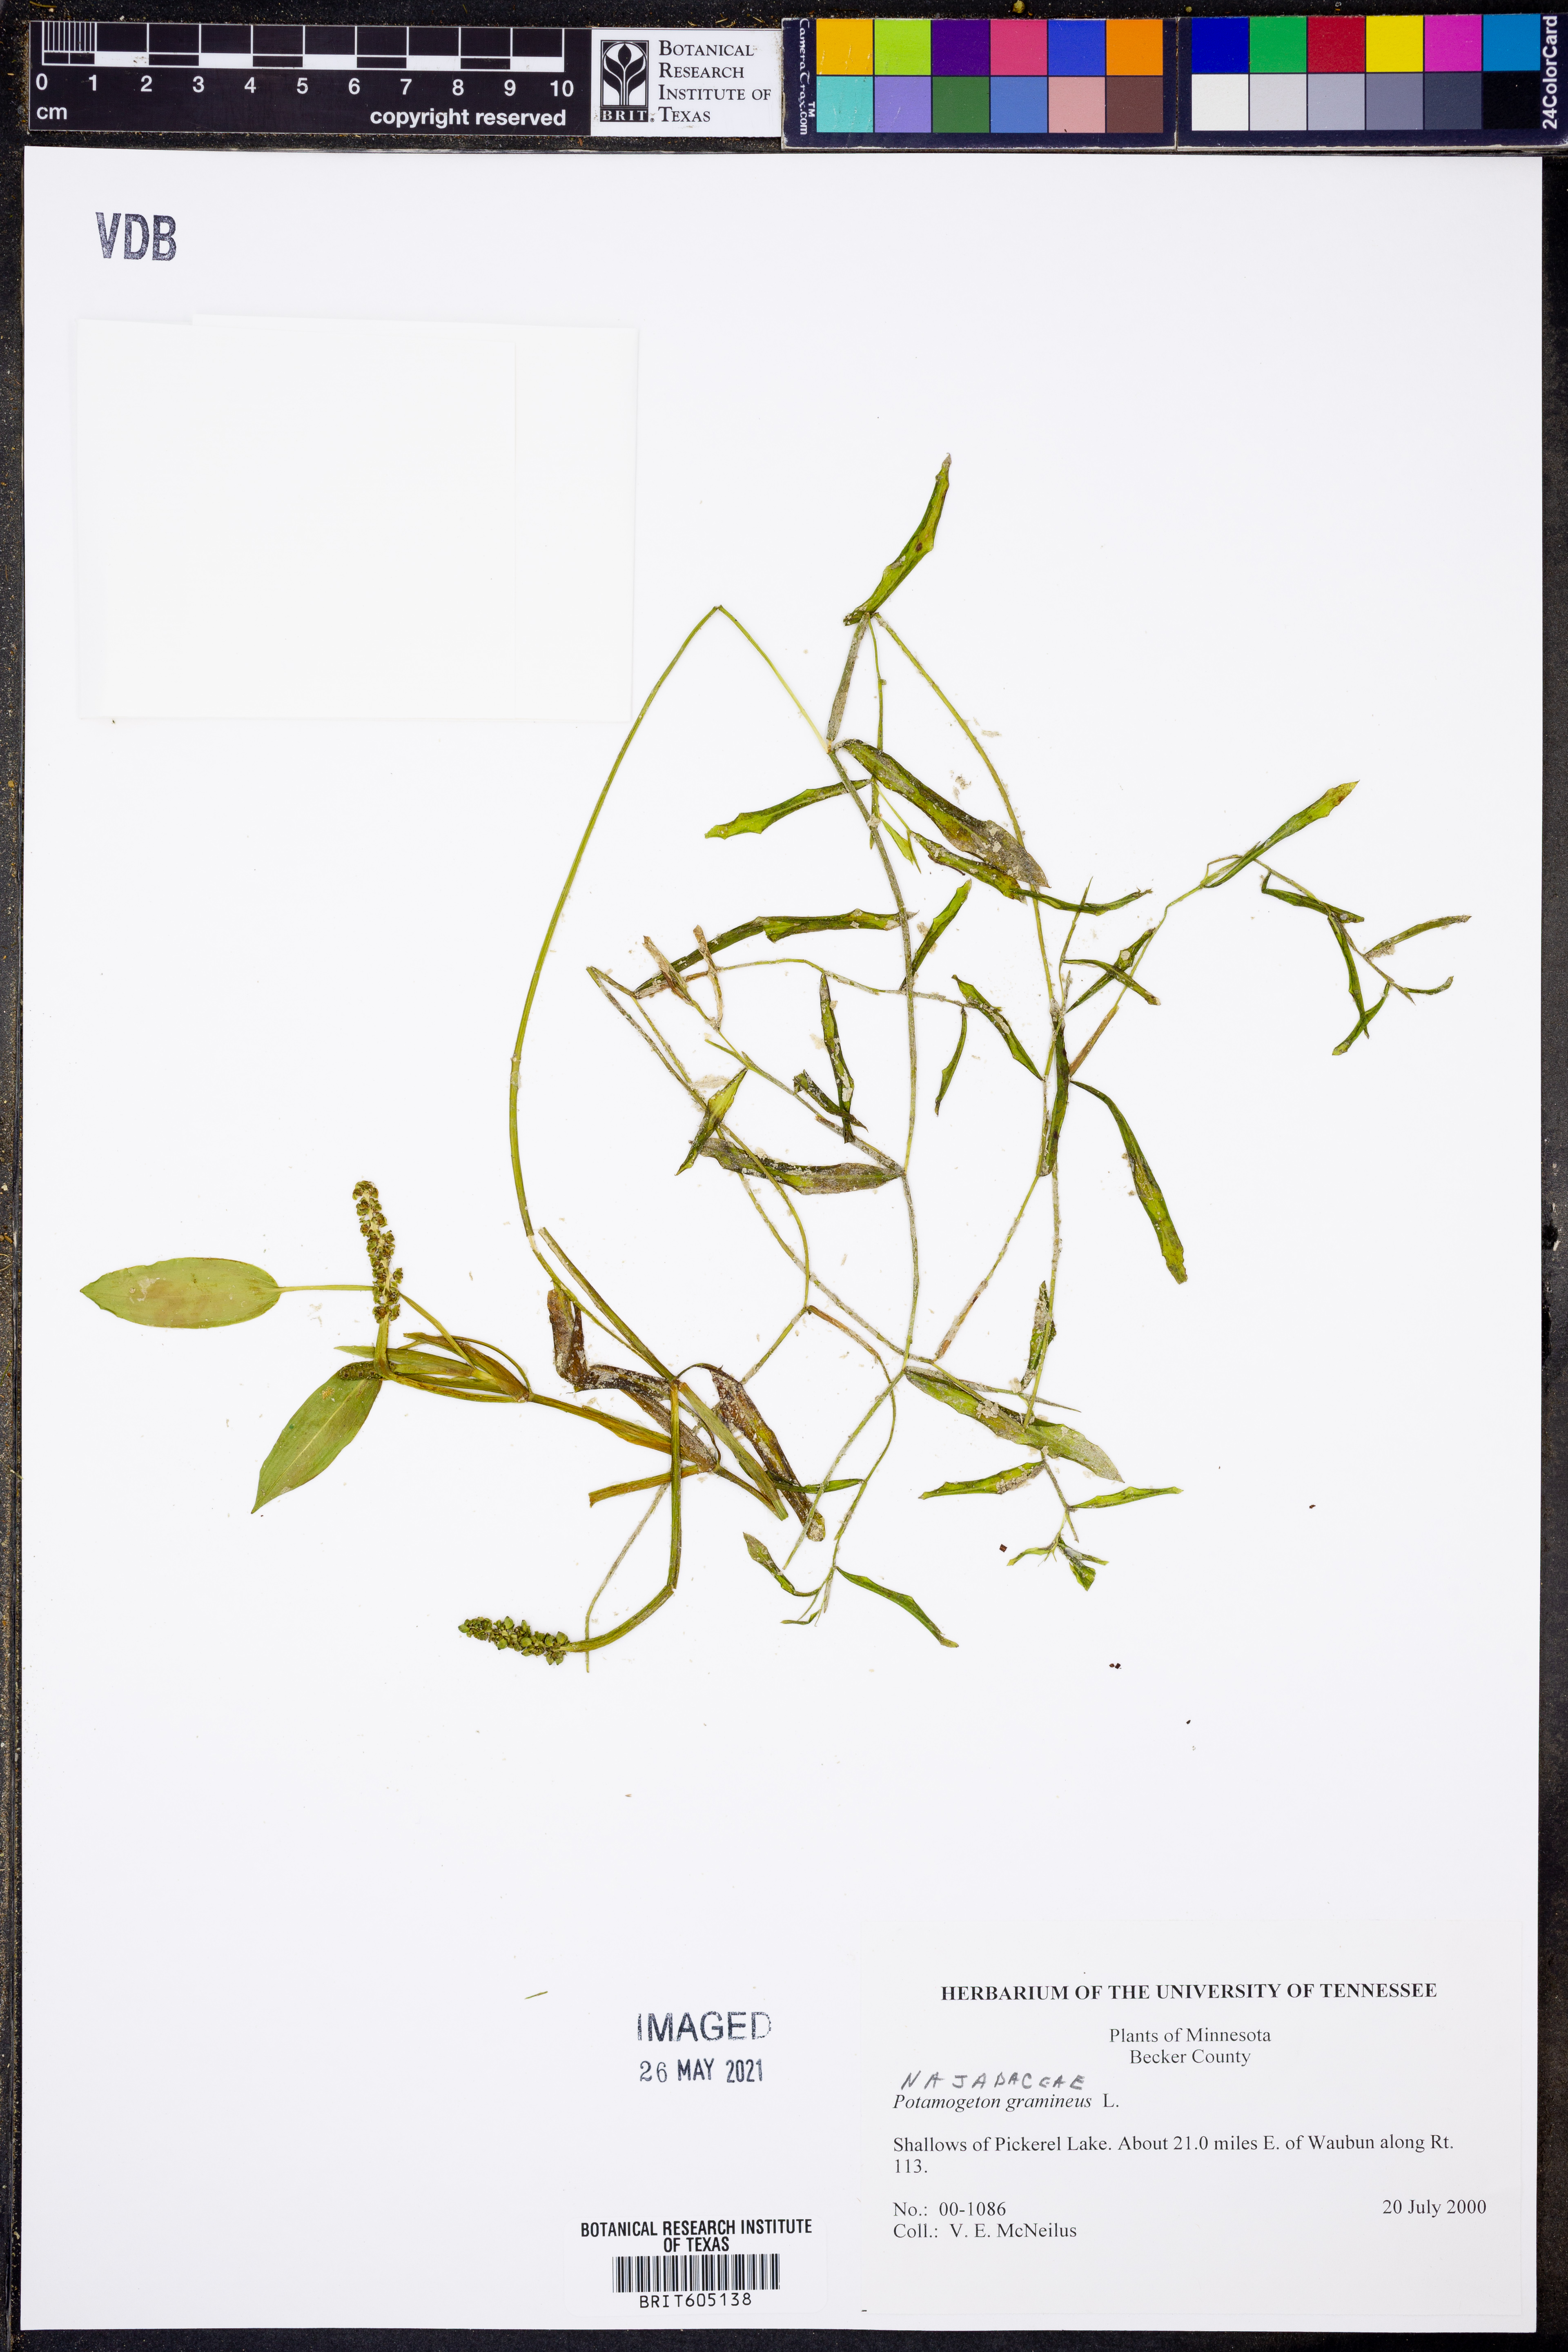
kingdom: Plantae
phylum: Tracheophyta
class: Liliopsida
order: Alismatales
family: Potamogetonaceae
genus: Potamogeton
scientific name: Potamogeton gramineus
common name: Various-leaved pondweed
